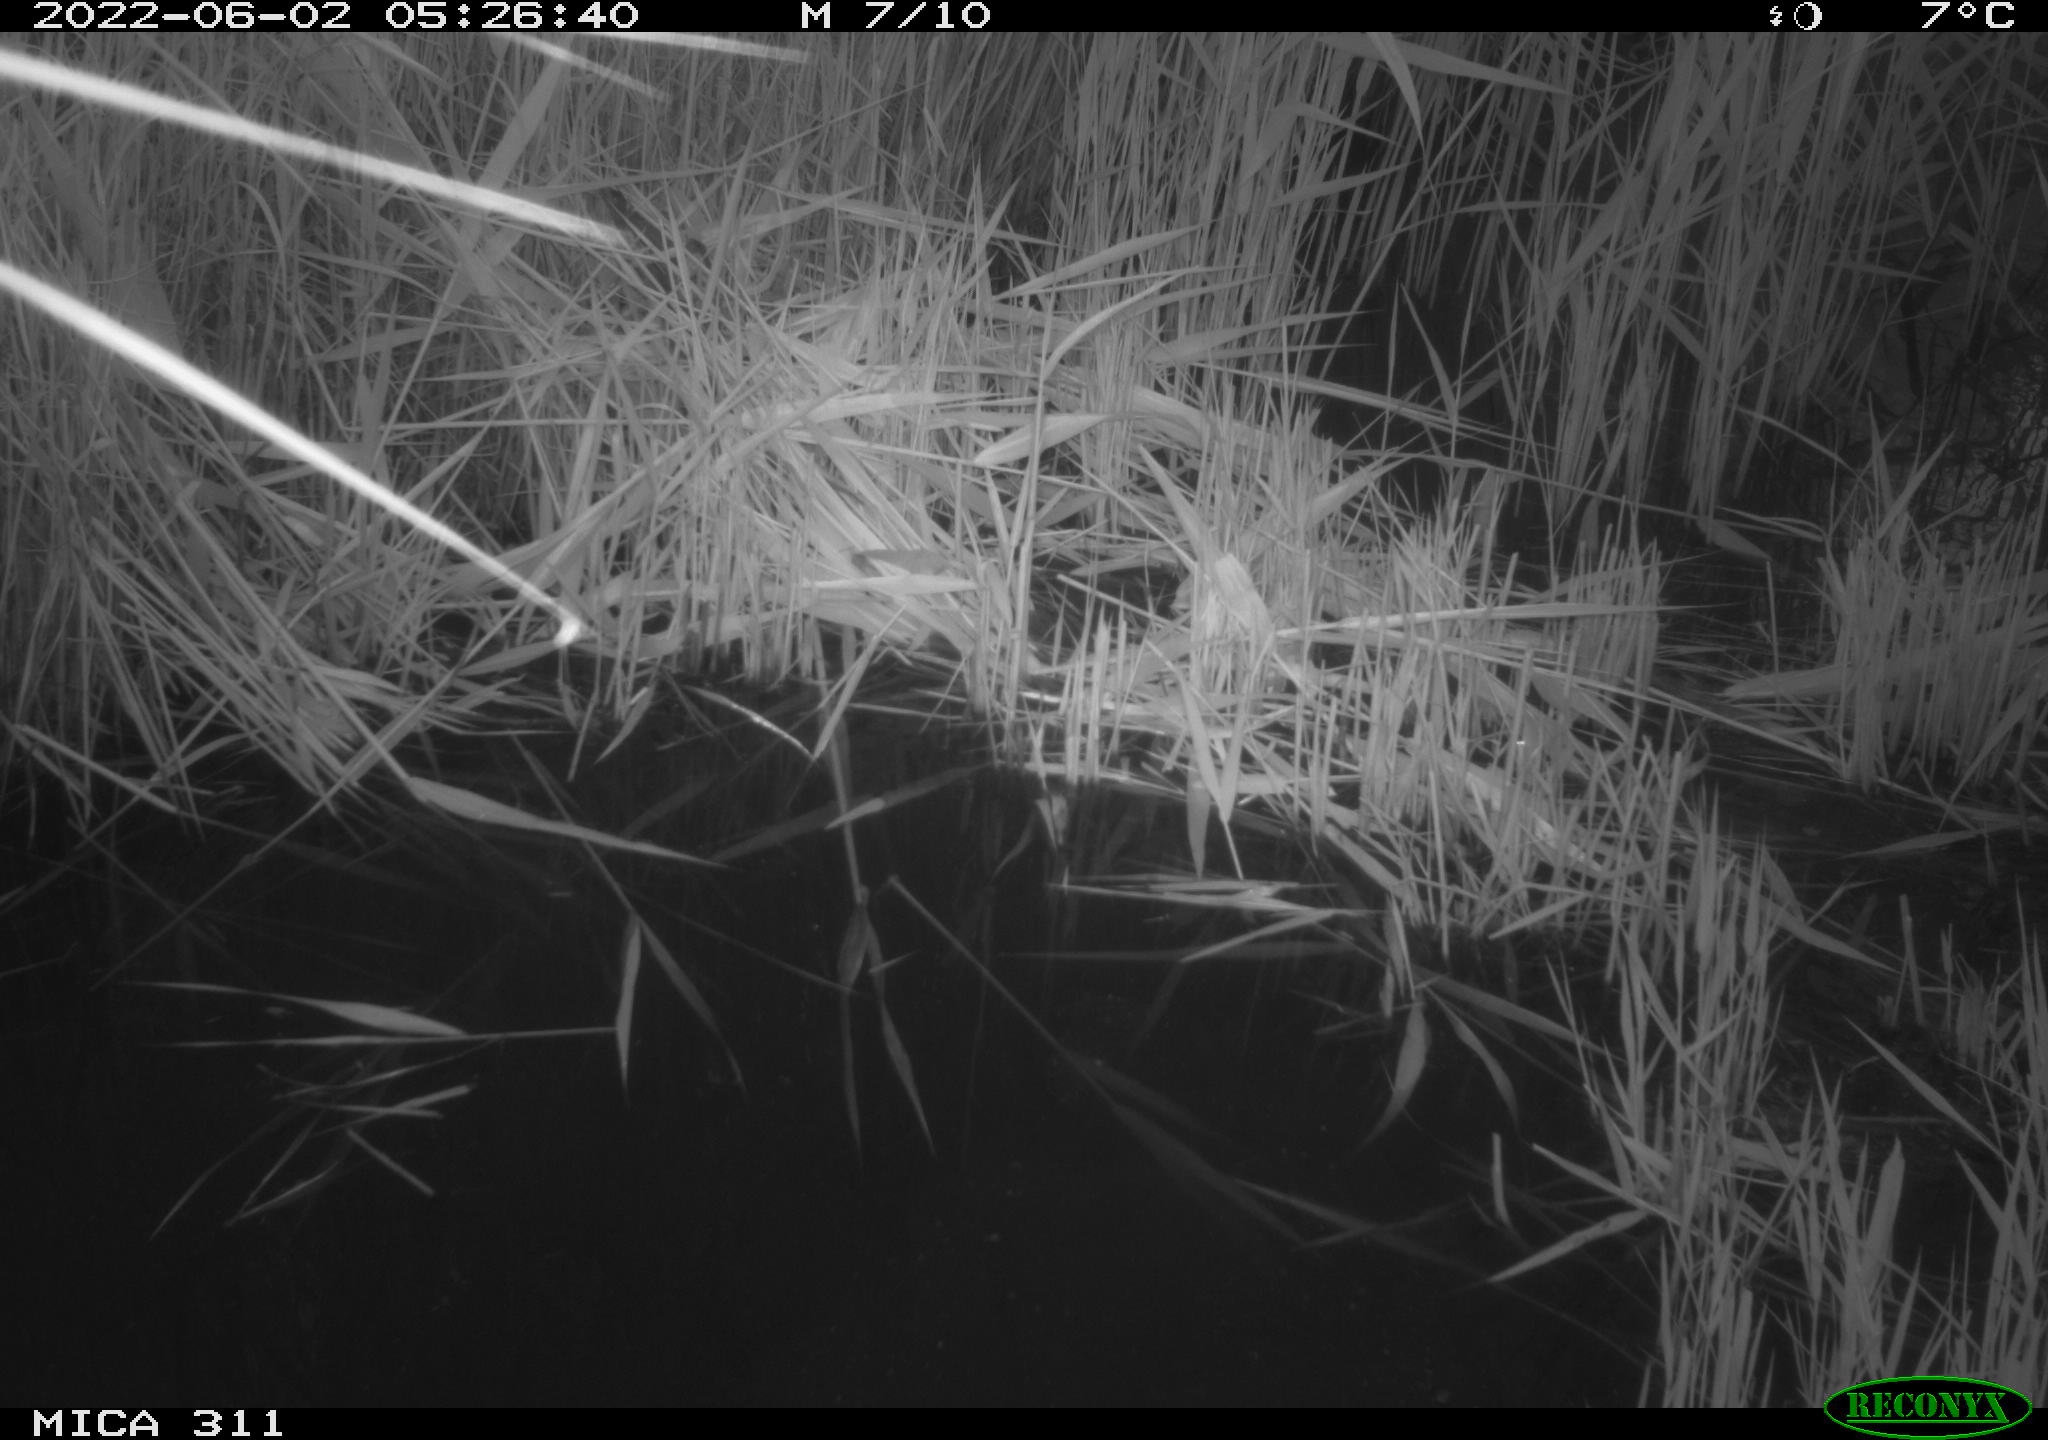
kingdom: Animalia
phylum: Chordata
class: Aves
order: Pelecaniformes
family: Ardeidae
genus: Ardea
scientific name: Ardea cinerea
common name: Grey heron
